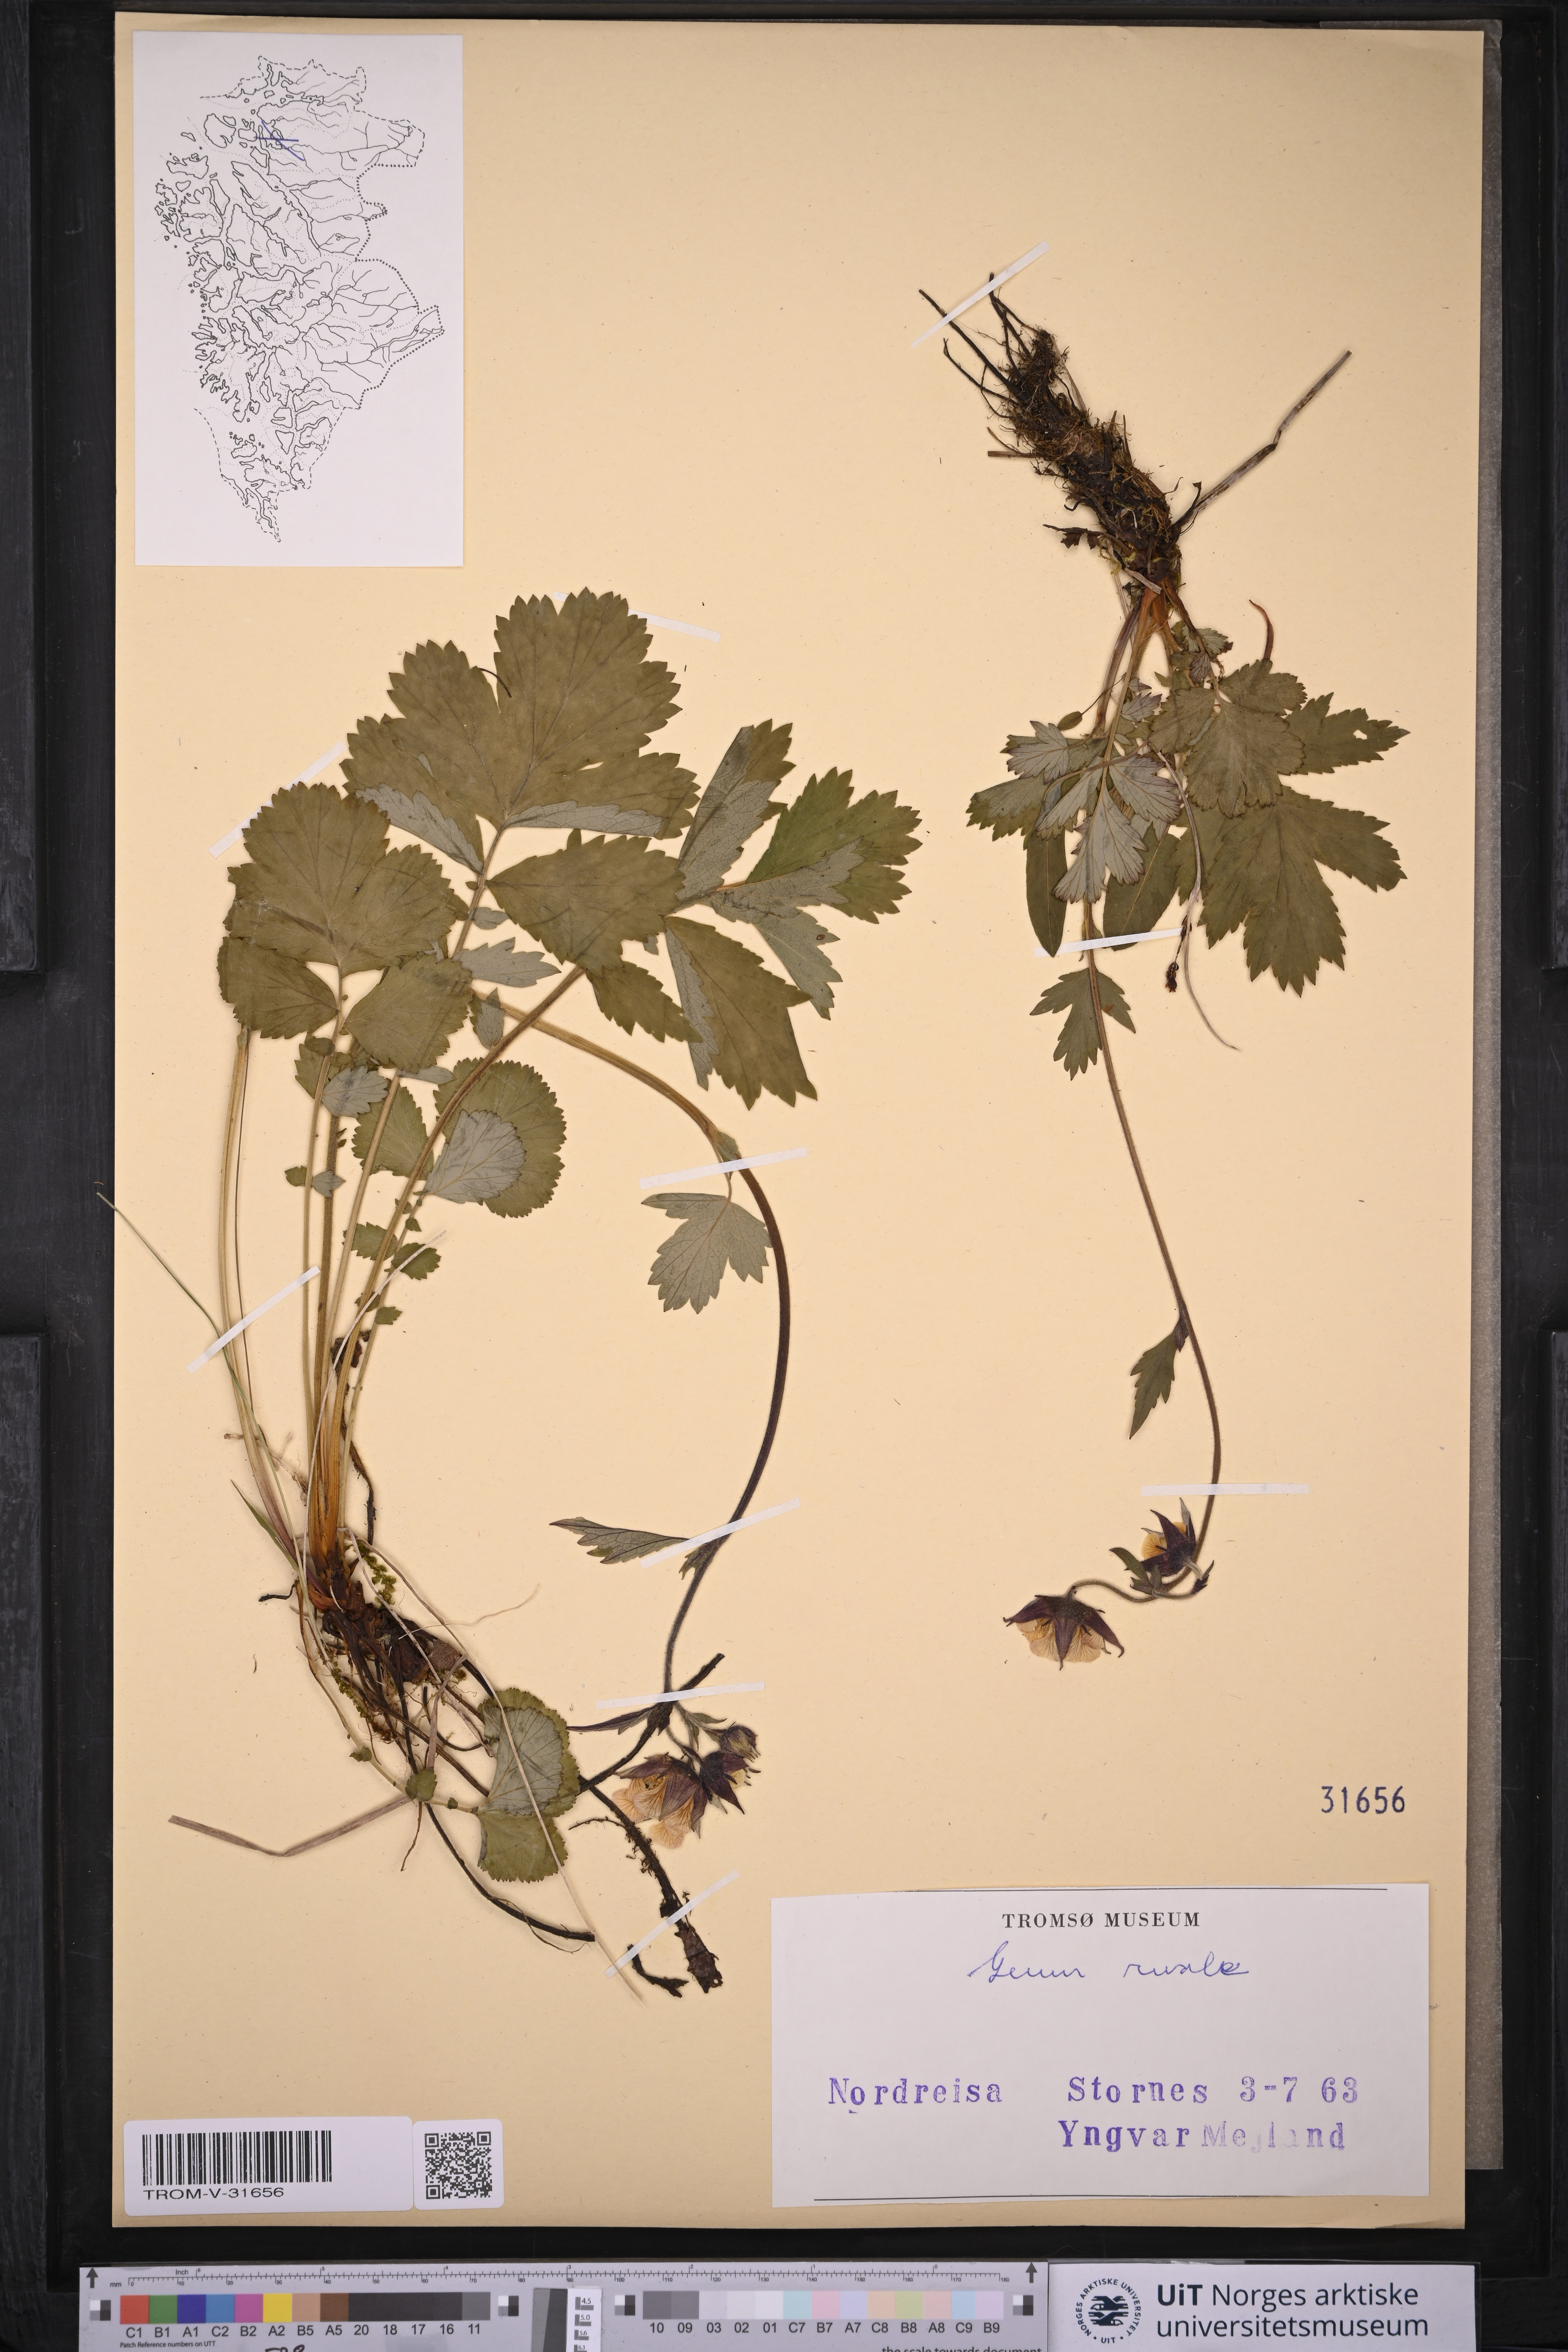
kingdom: Plantae
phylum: Tracheophyta
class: Magnoliopsida
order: Rosales
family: Rosaceae
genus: Geum
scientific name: Geum rivale
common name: Water avens
